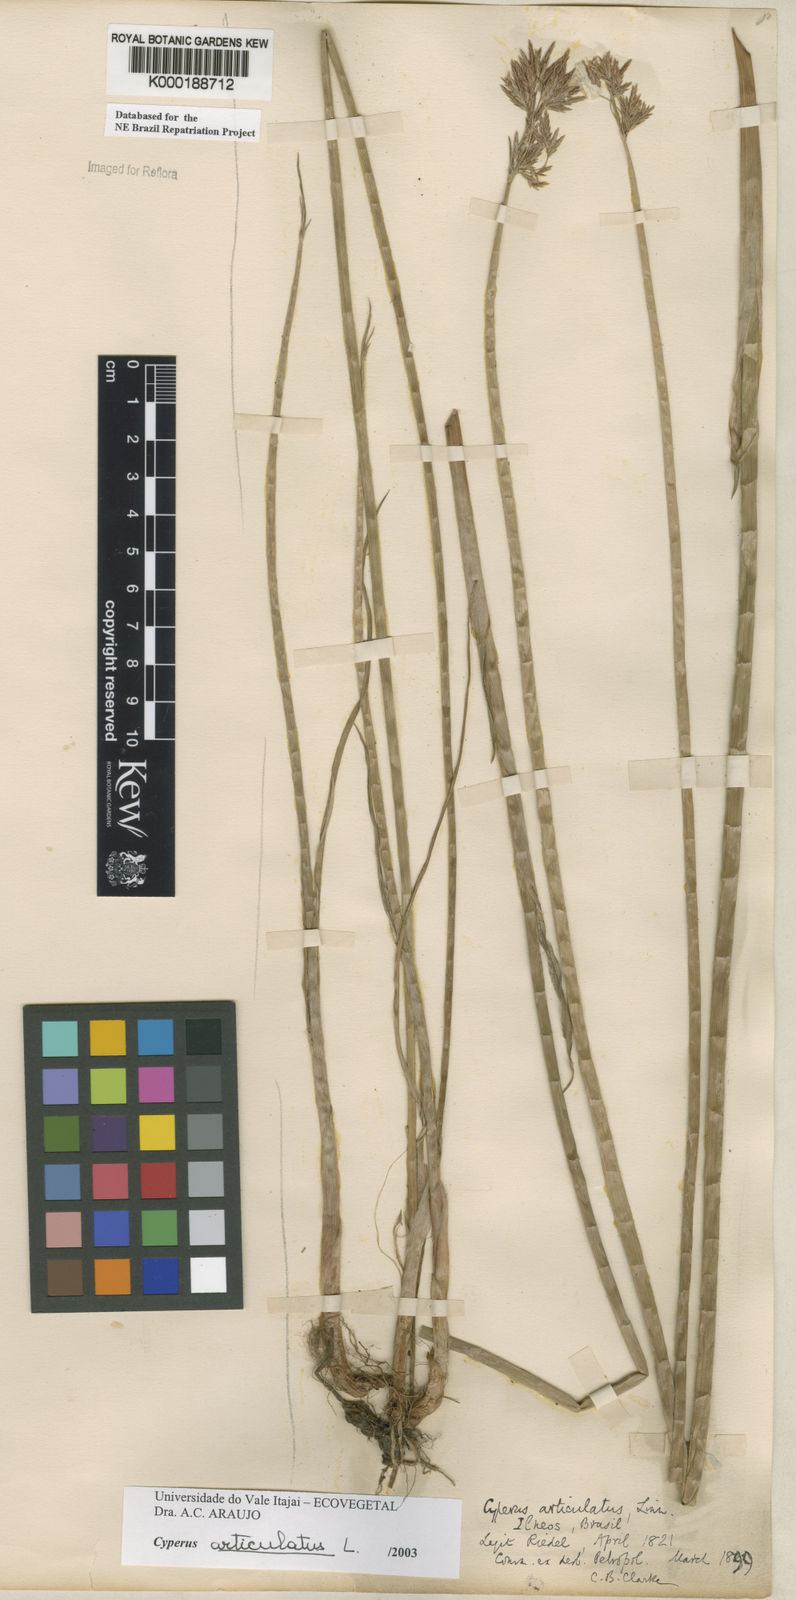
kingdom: Plantae
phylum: Tracheophyta
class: Liliopsida
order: Poales
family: Cyperaceae
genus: Cyperus
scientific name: Cyperus articulatus
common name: Jointed flatsedge
